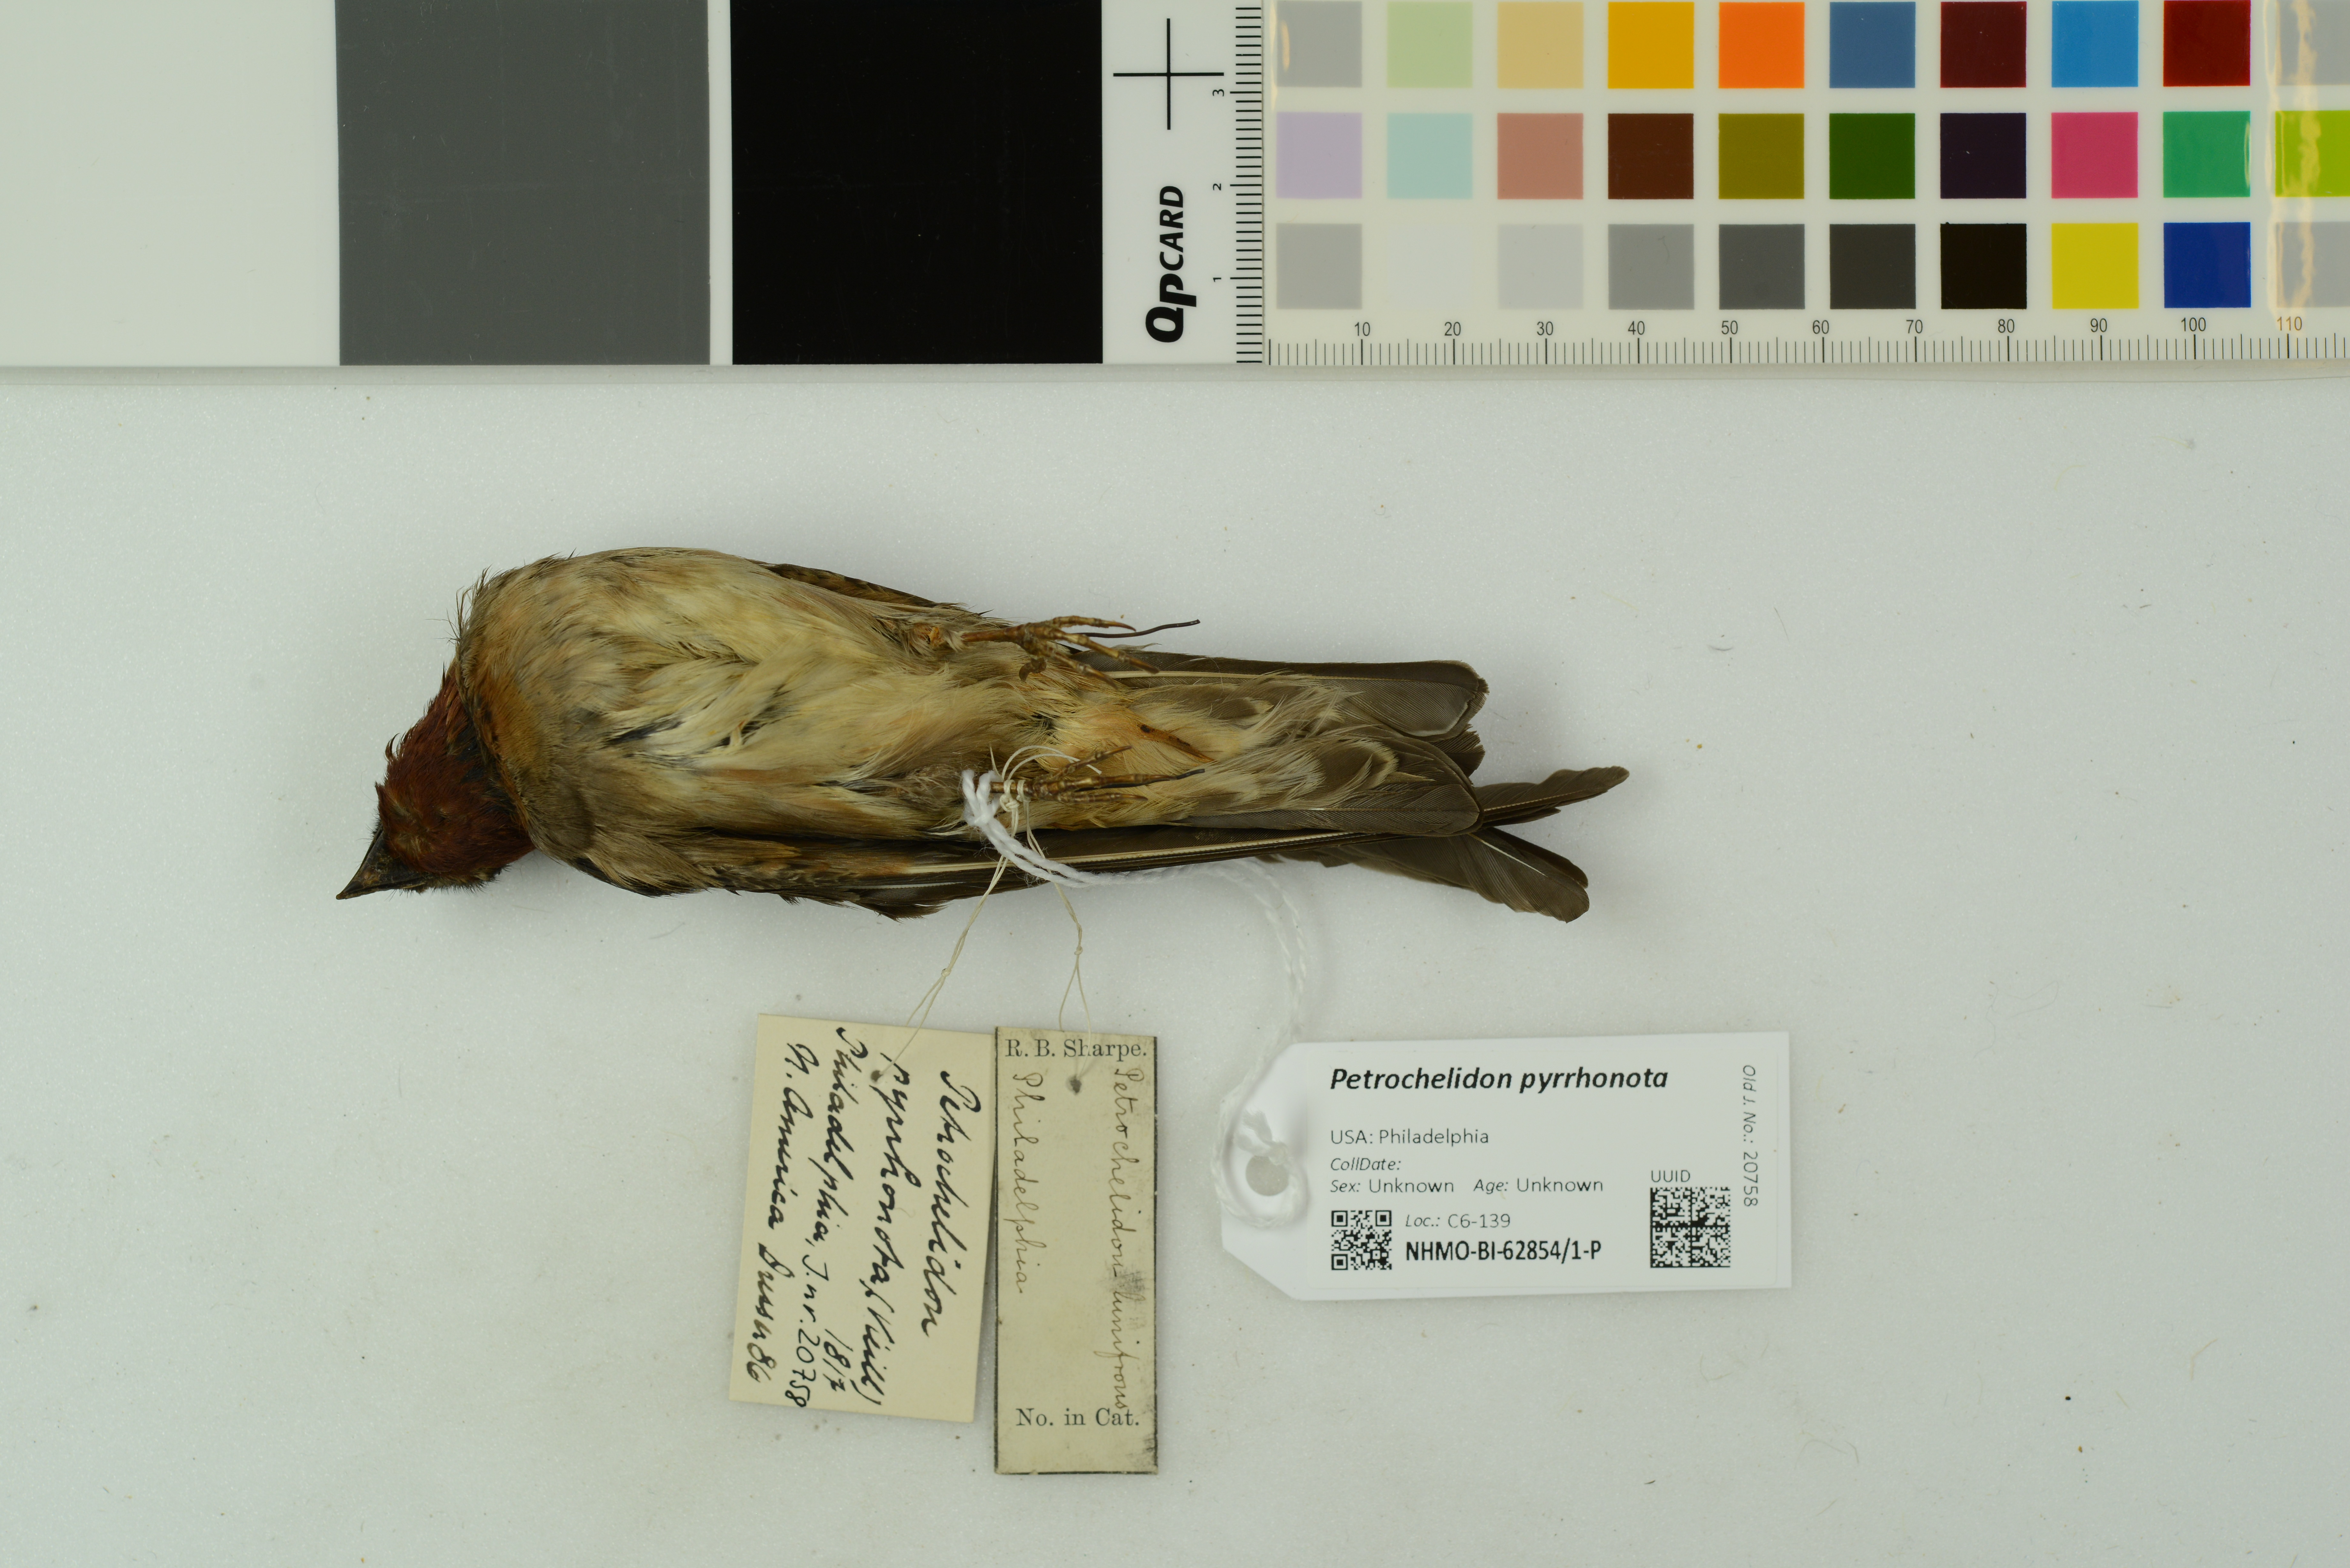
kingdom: Animalia
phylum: Chordata
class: Aves
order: Passeriformes
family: Hirundinidae
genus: Petrochelidon
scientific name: Petrochelidon pyrrhonota
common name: American cliff swallow
